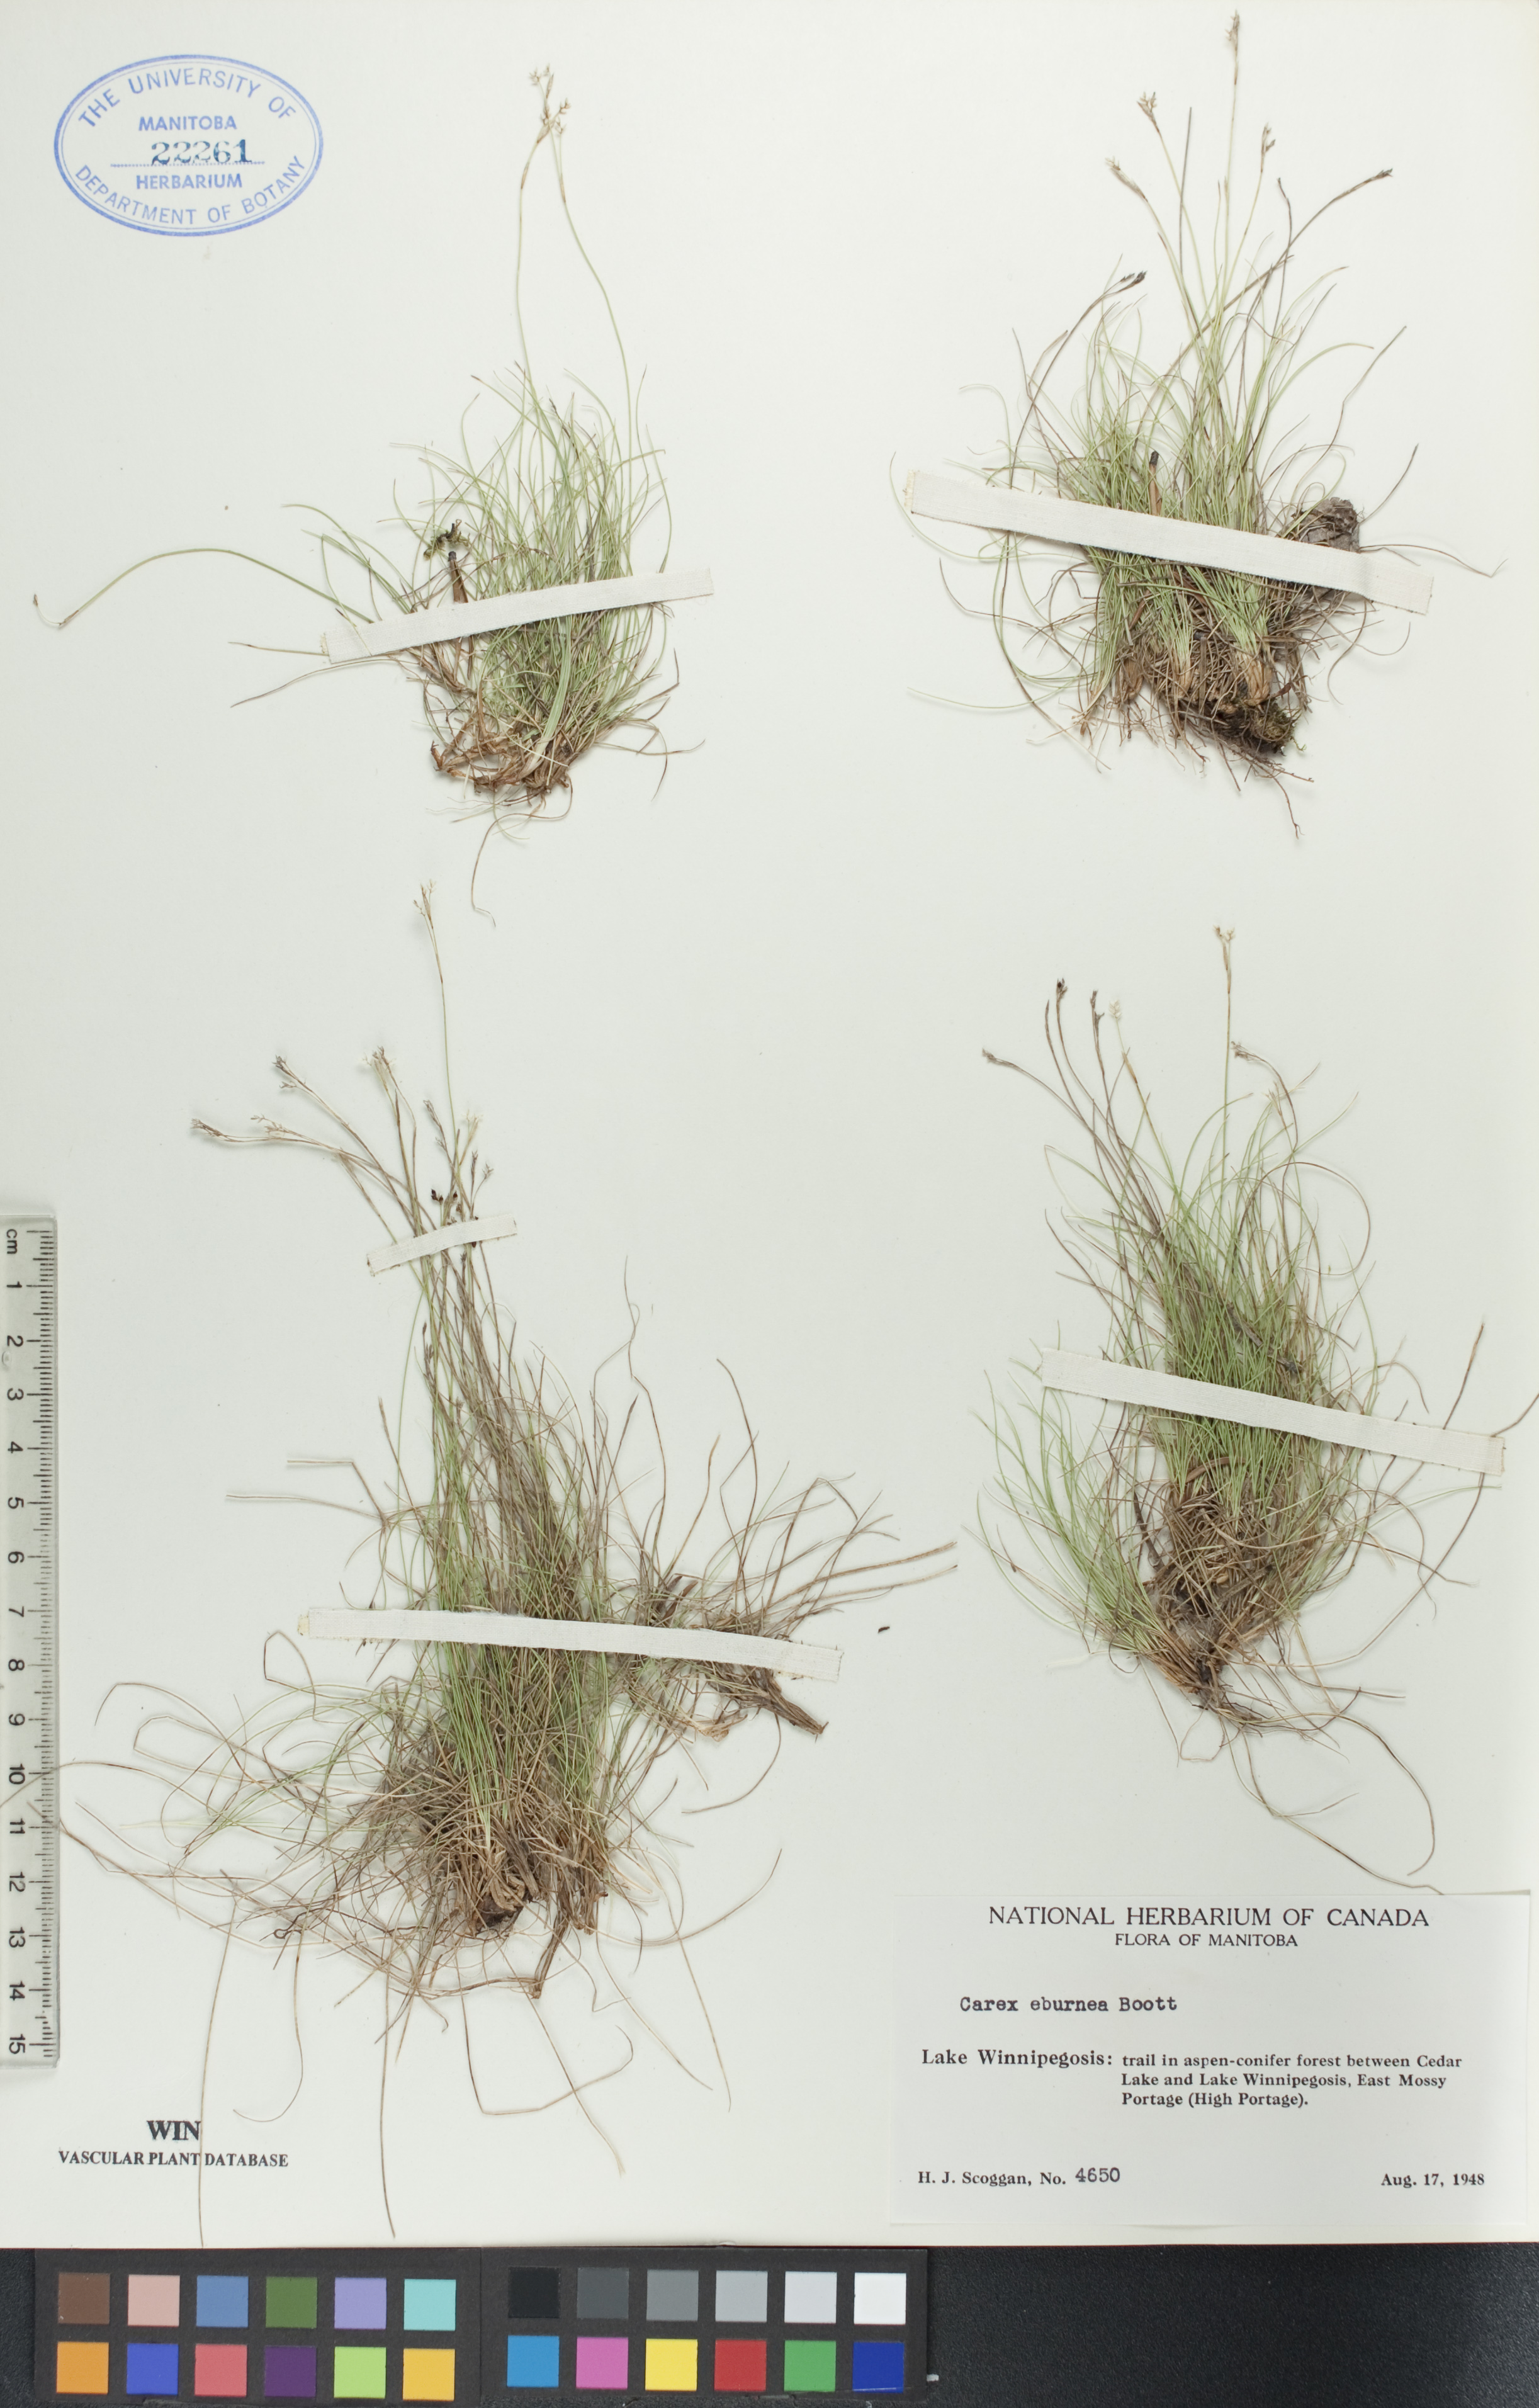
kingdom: Plantae
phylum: Tracheophyta
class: Liliopsida
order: Poales
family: Cyperaceae
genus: Carex
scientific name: Carex eburnea
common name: Bristle-leaved sedge
